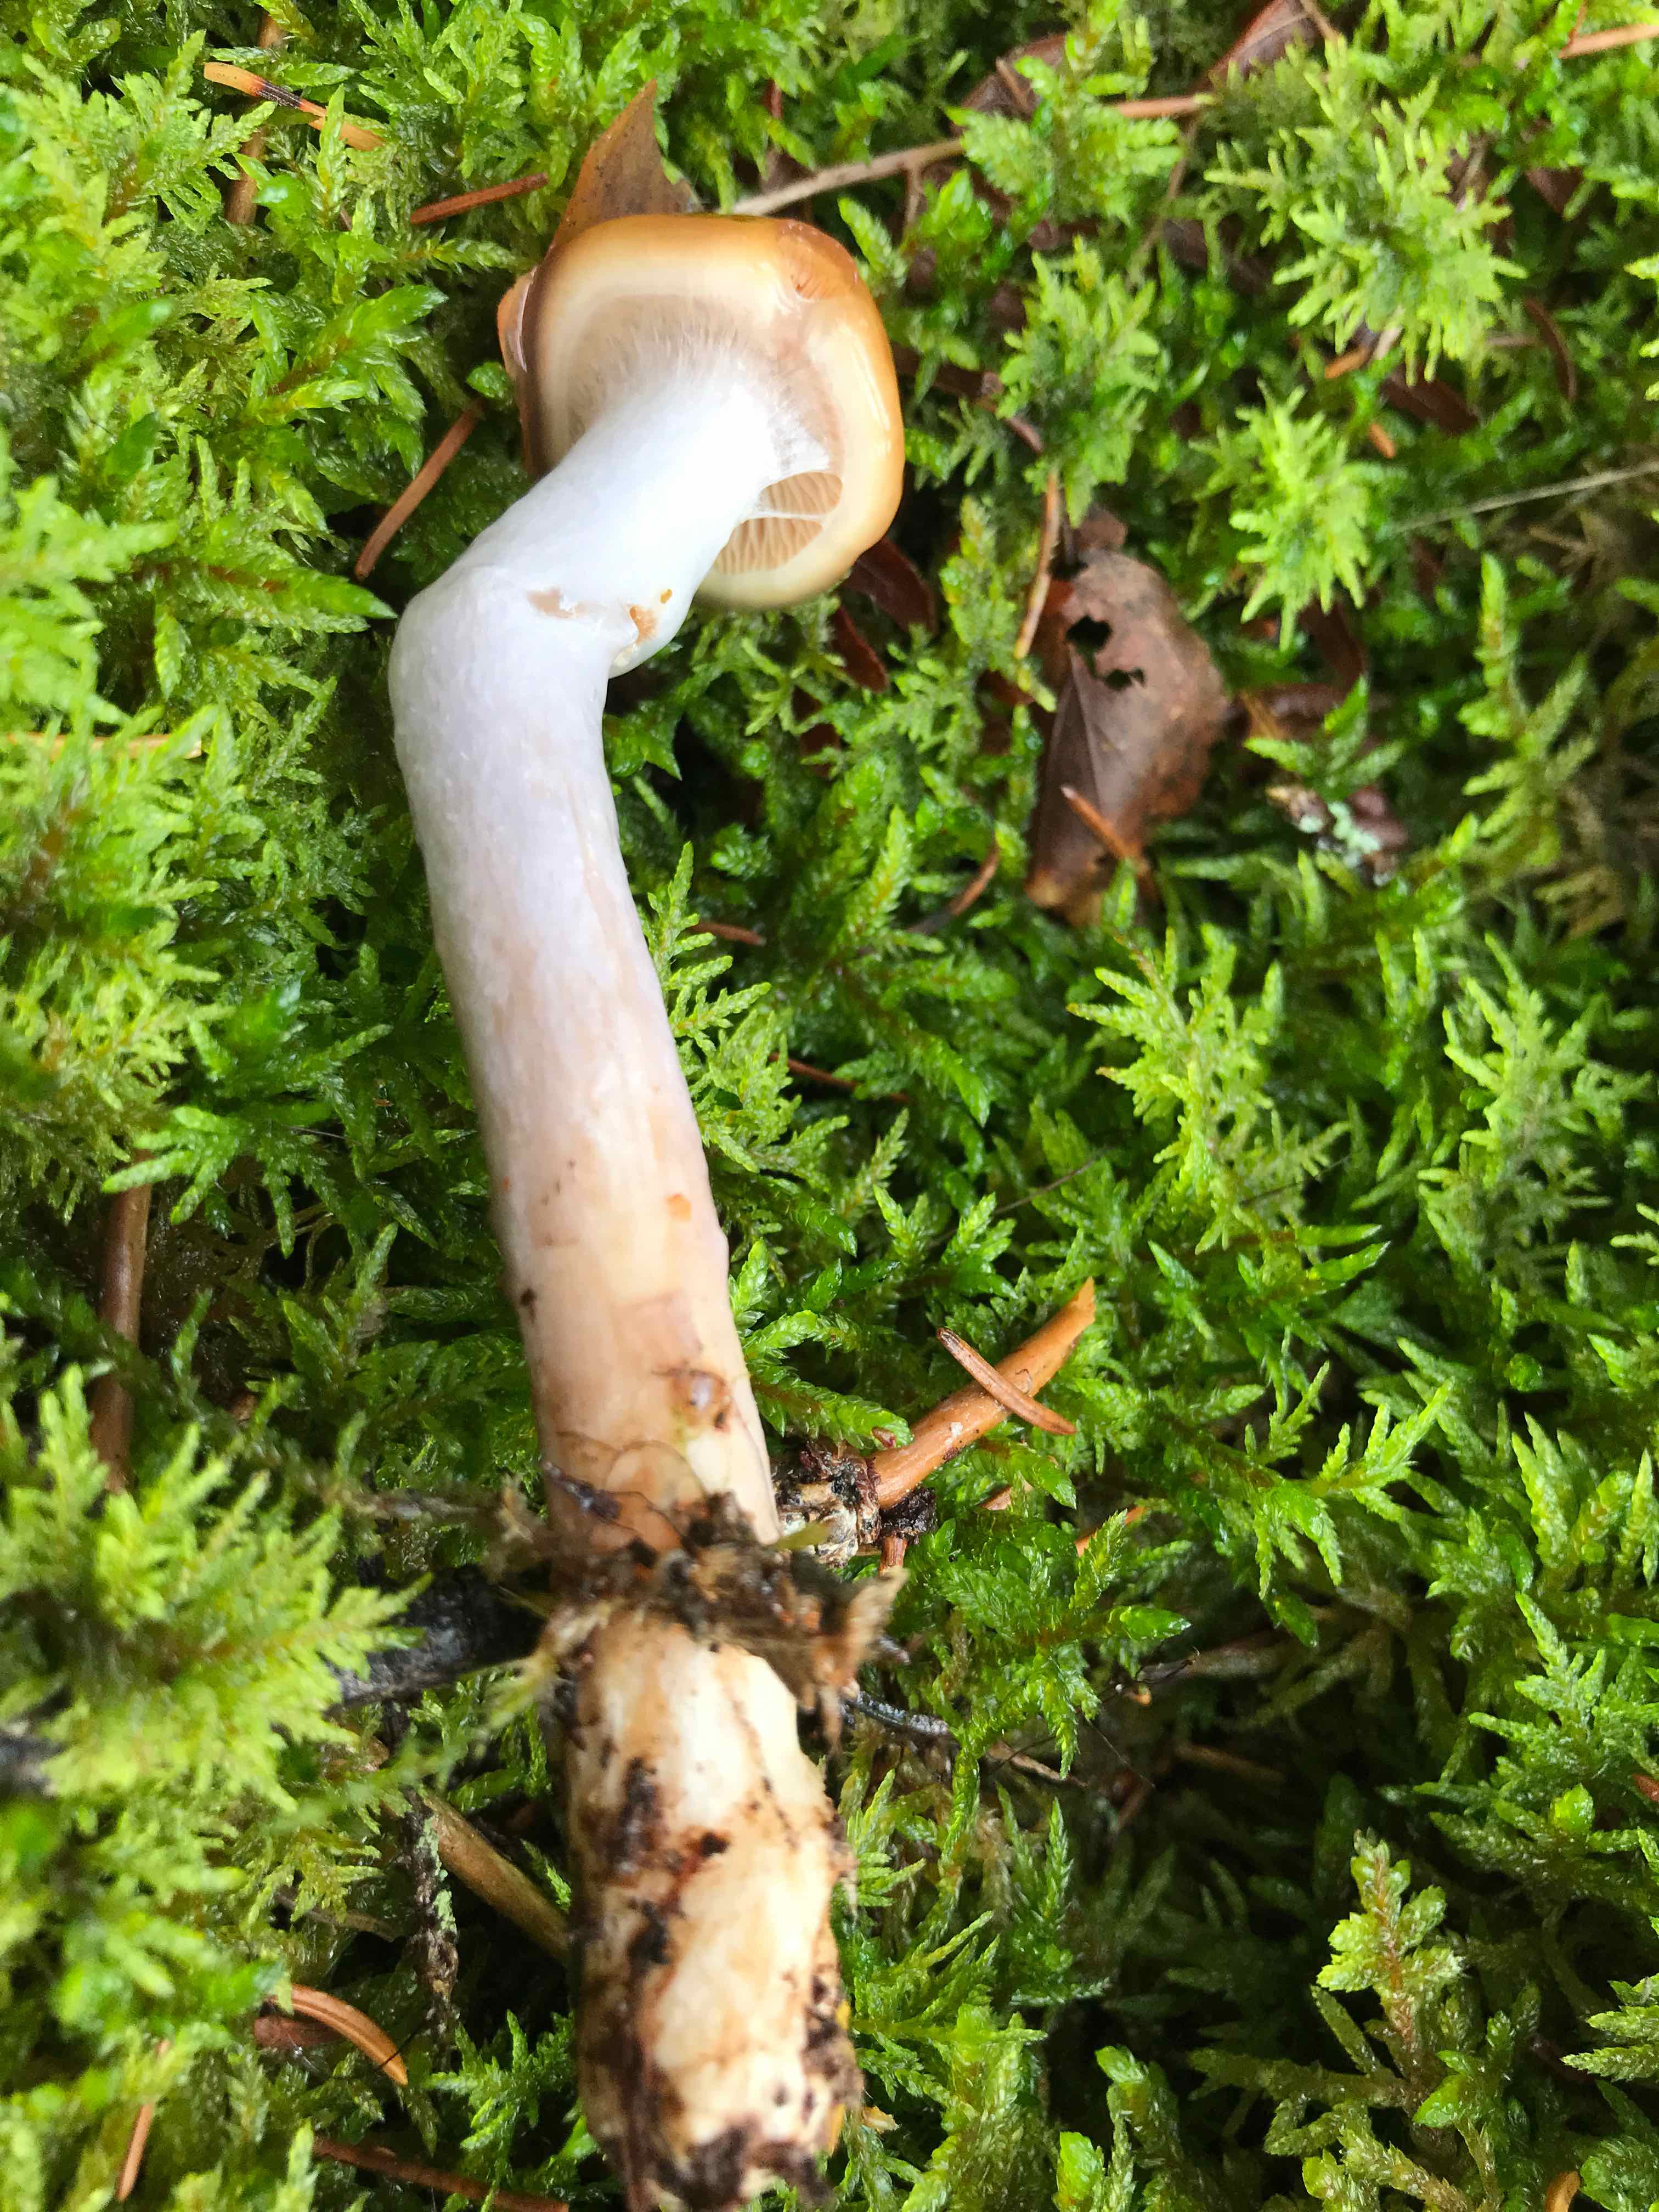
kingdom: Fungi
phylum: Basidiomycota
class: Agaricomycetes
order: Agaricales
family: Cortinariaceae
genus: Cortinarius
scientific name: Cortinarius
